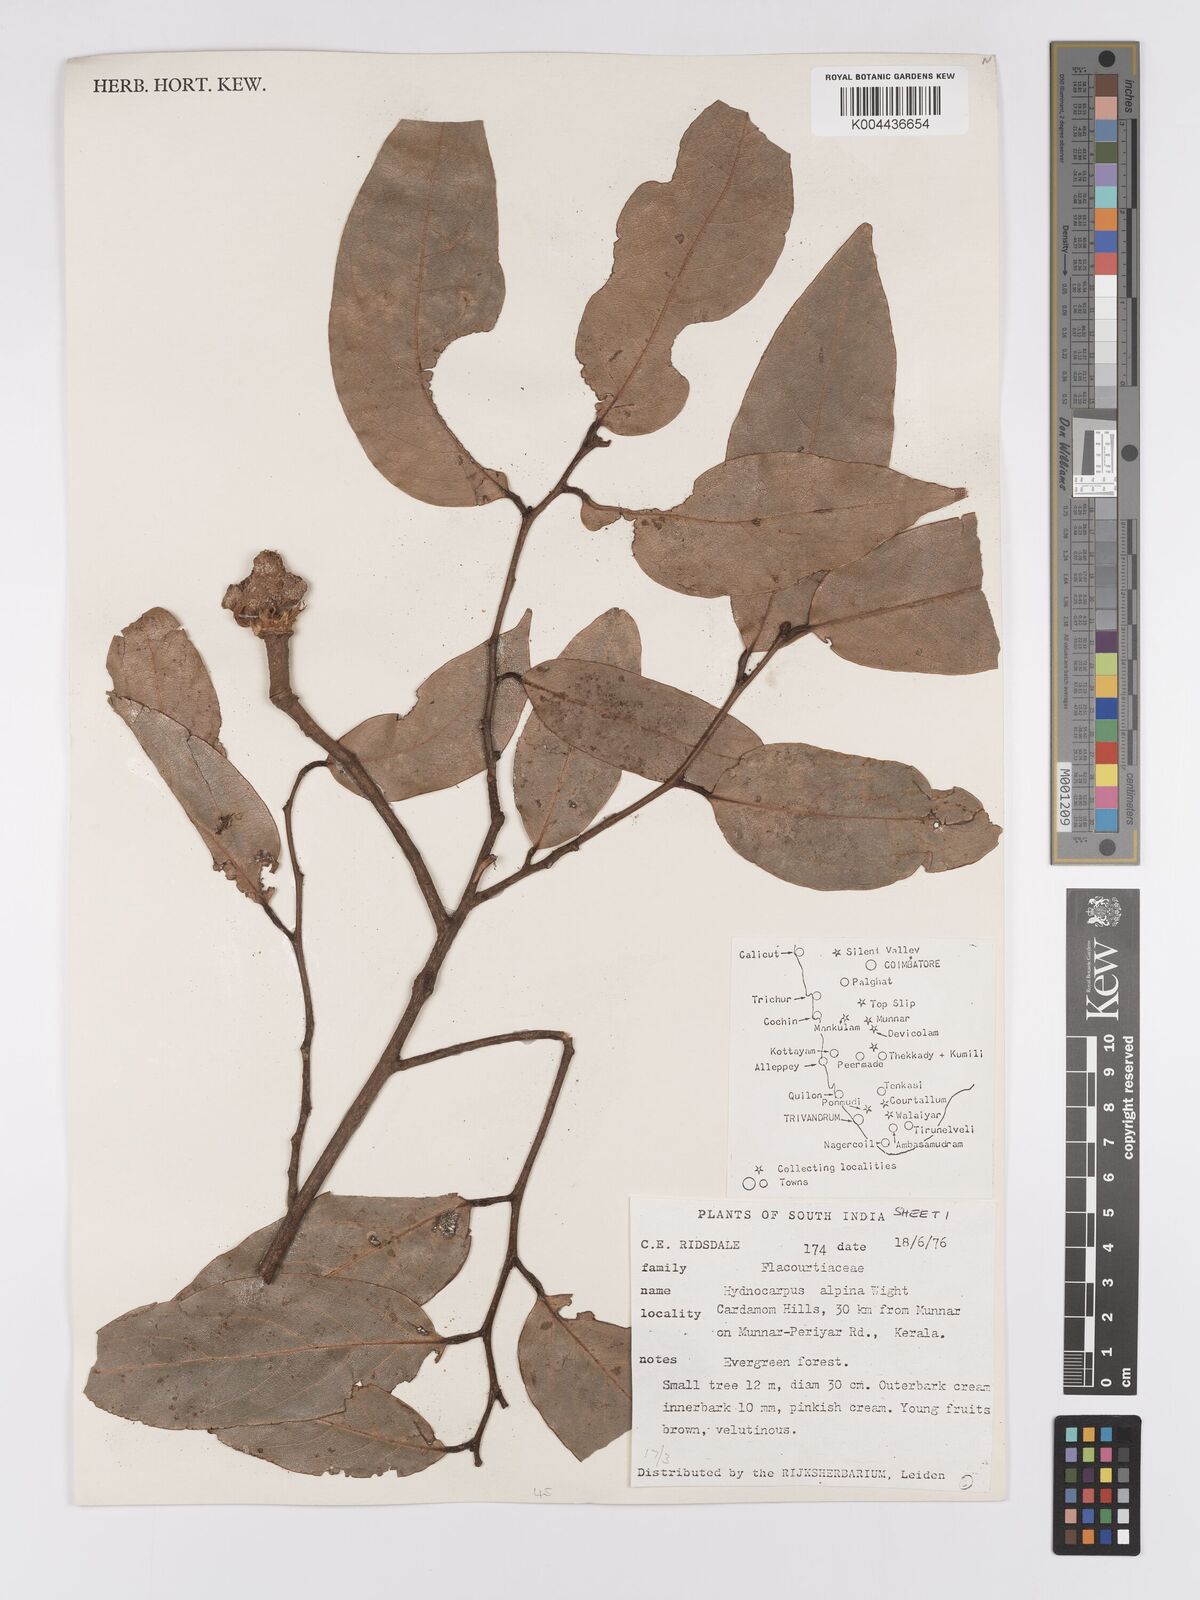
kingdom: Plantae
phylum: Tracheophyta
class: Magnoliopsida
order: Malpighiales
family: Achariaceae
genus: Hydnocarpus
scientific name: Hydnocarpus alpinus
